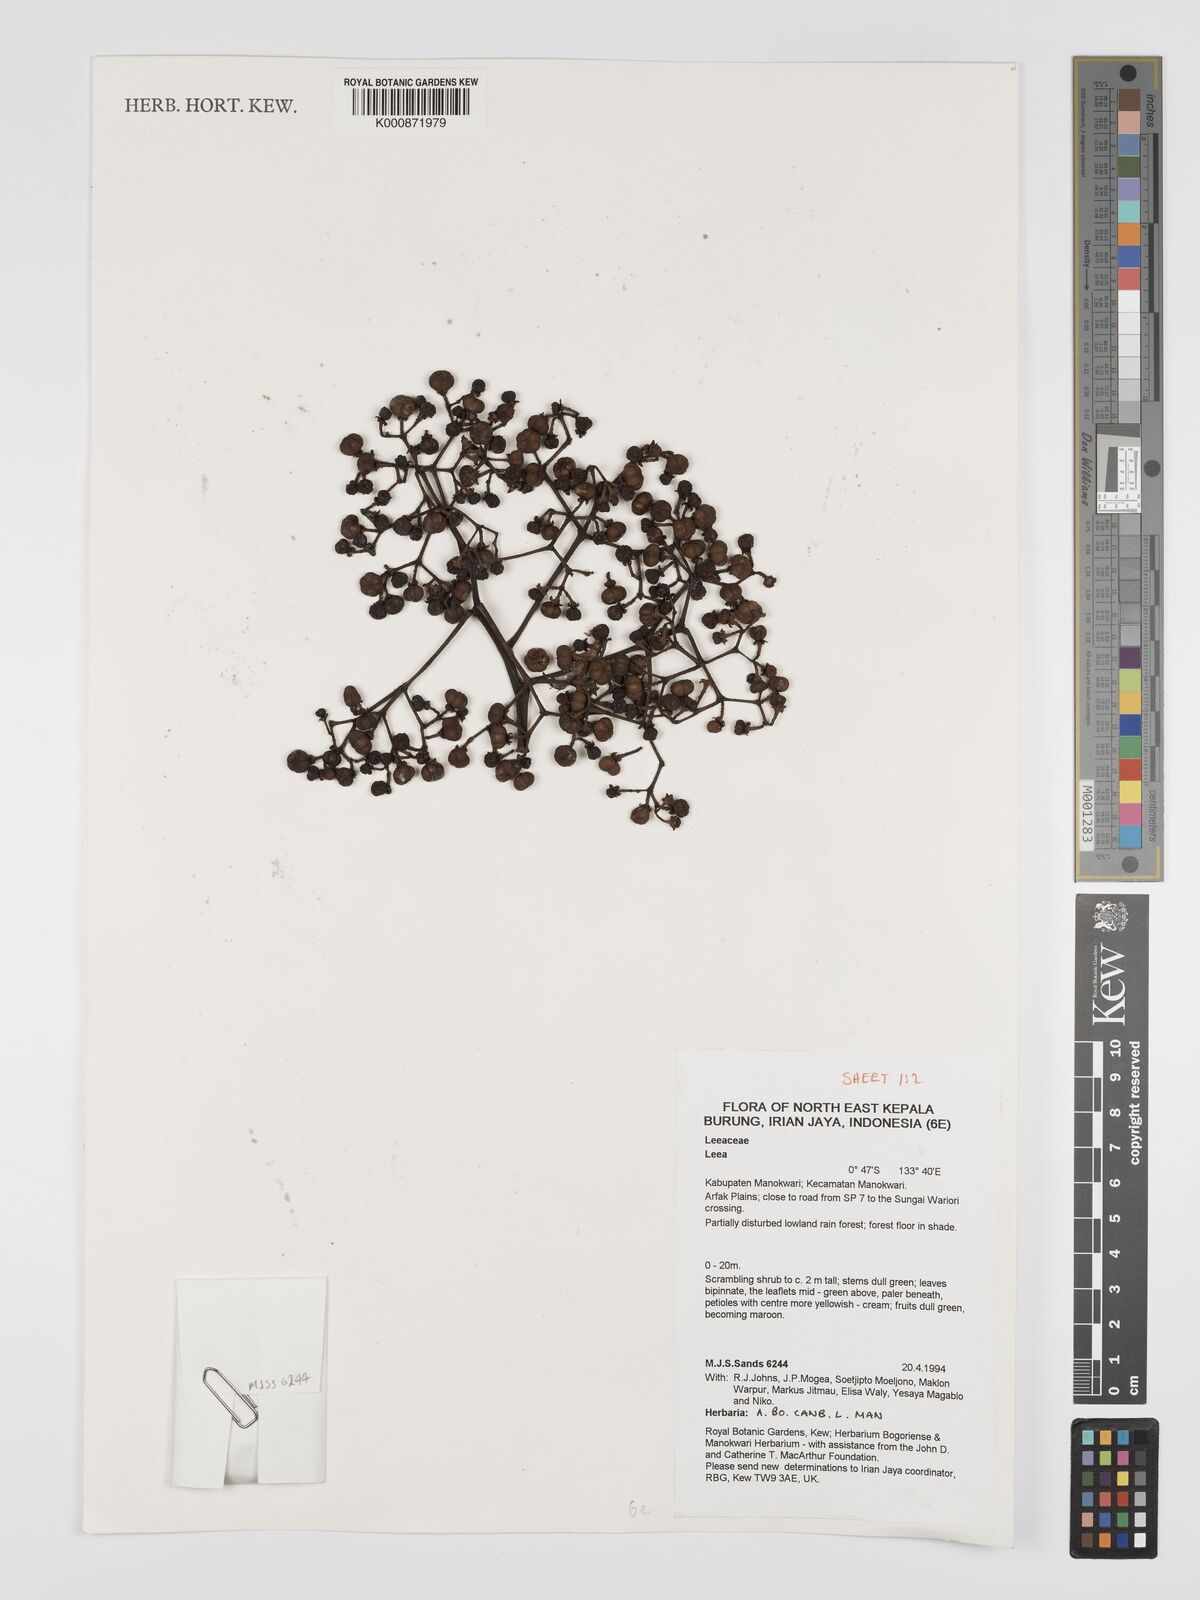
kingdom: Plantae
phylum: Tracheophyta
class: Magnoliopsida
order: Vitales
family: Vitaceae
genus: Leea
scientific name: Leea
